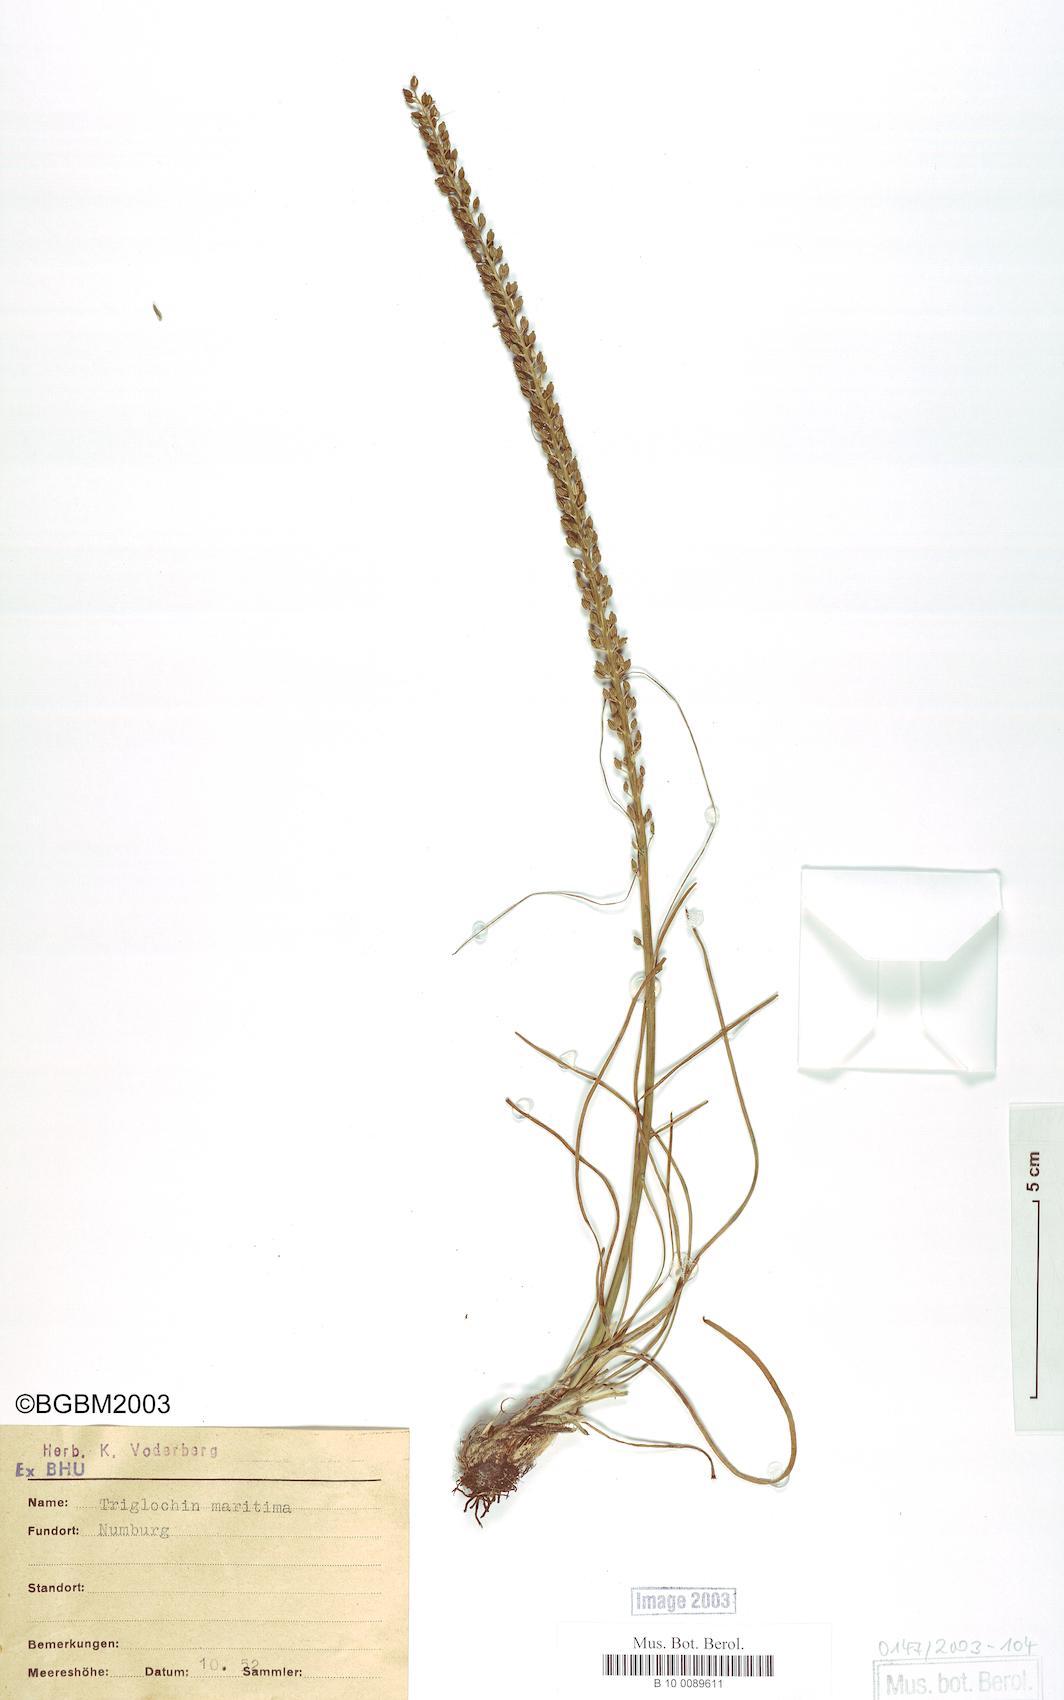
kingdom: Plantae
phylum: Tracheophyta
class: Liliopsida
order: Alismatales
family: Juncaginaceae
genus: Triglochin
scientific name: Triglochin maritima
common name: Sea arrowgrass
